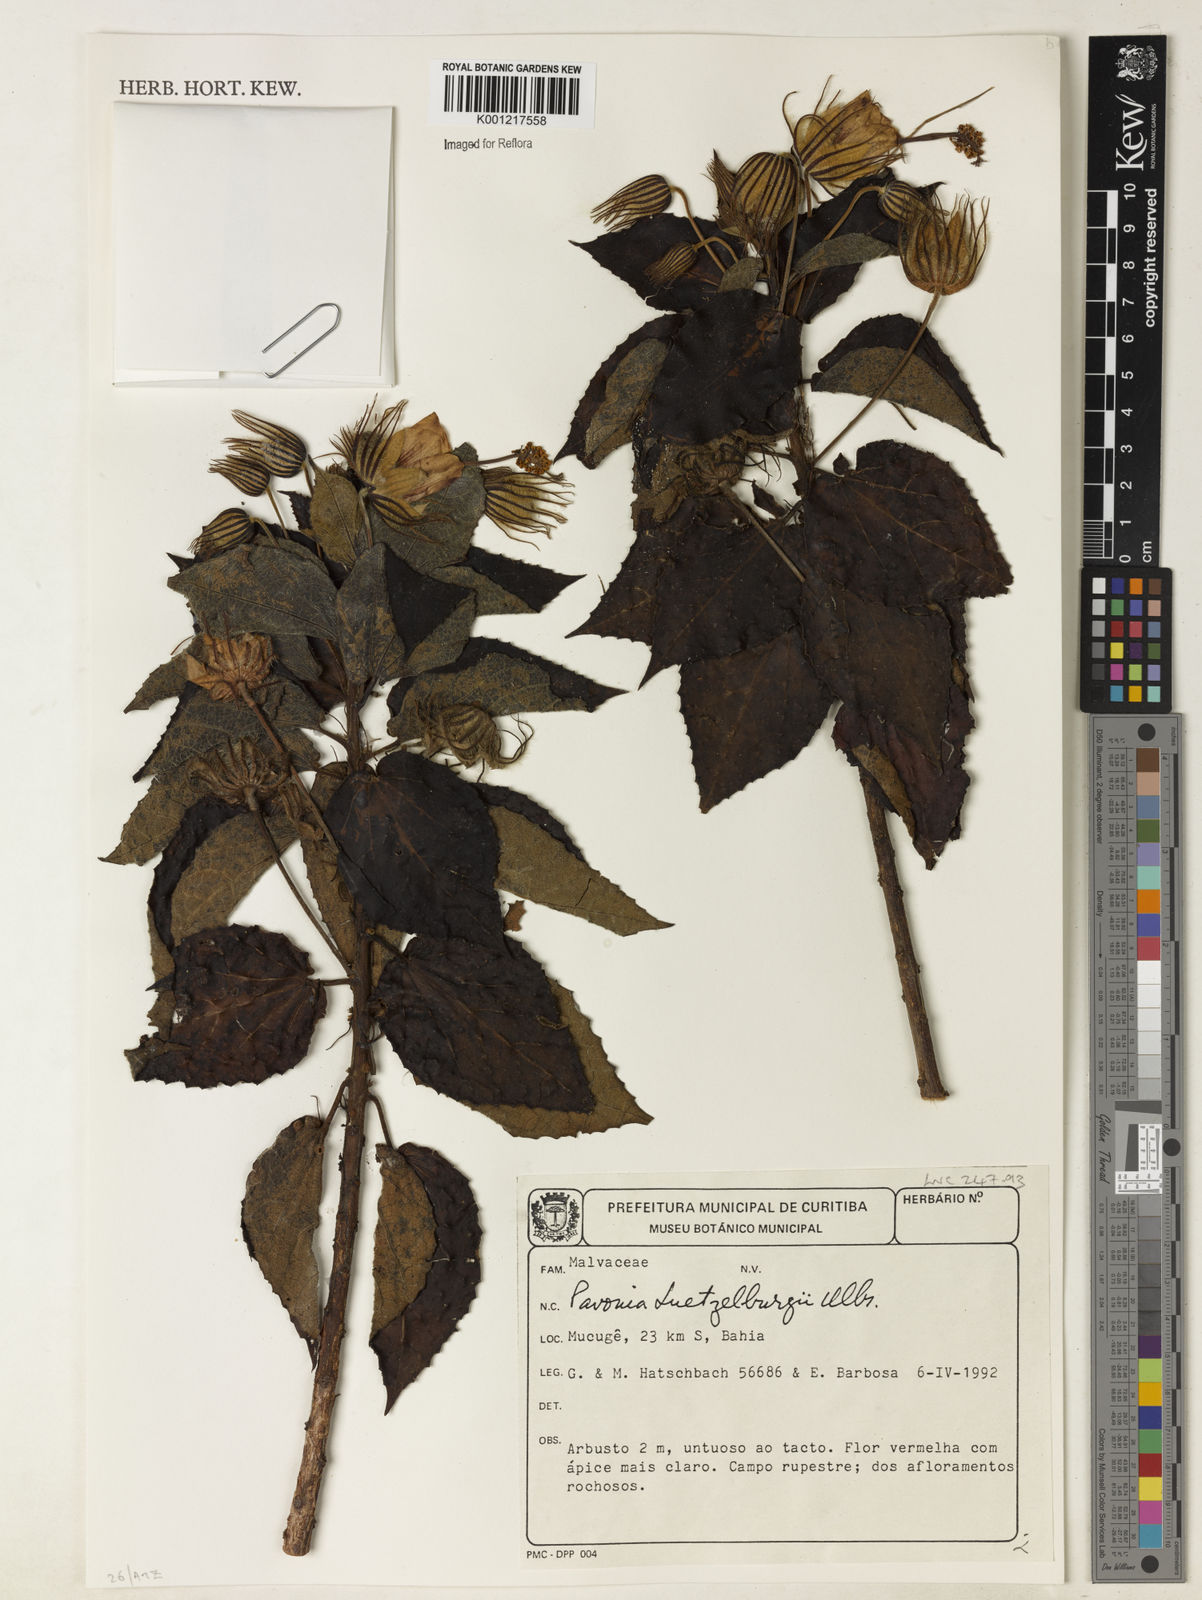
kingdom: Plantae
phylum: Tracheophyta
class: Magnoliopsida
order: Malvales
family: Malvaceae
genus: Pavonia
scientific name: Pavonia luetzelburgii
